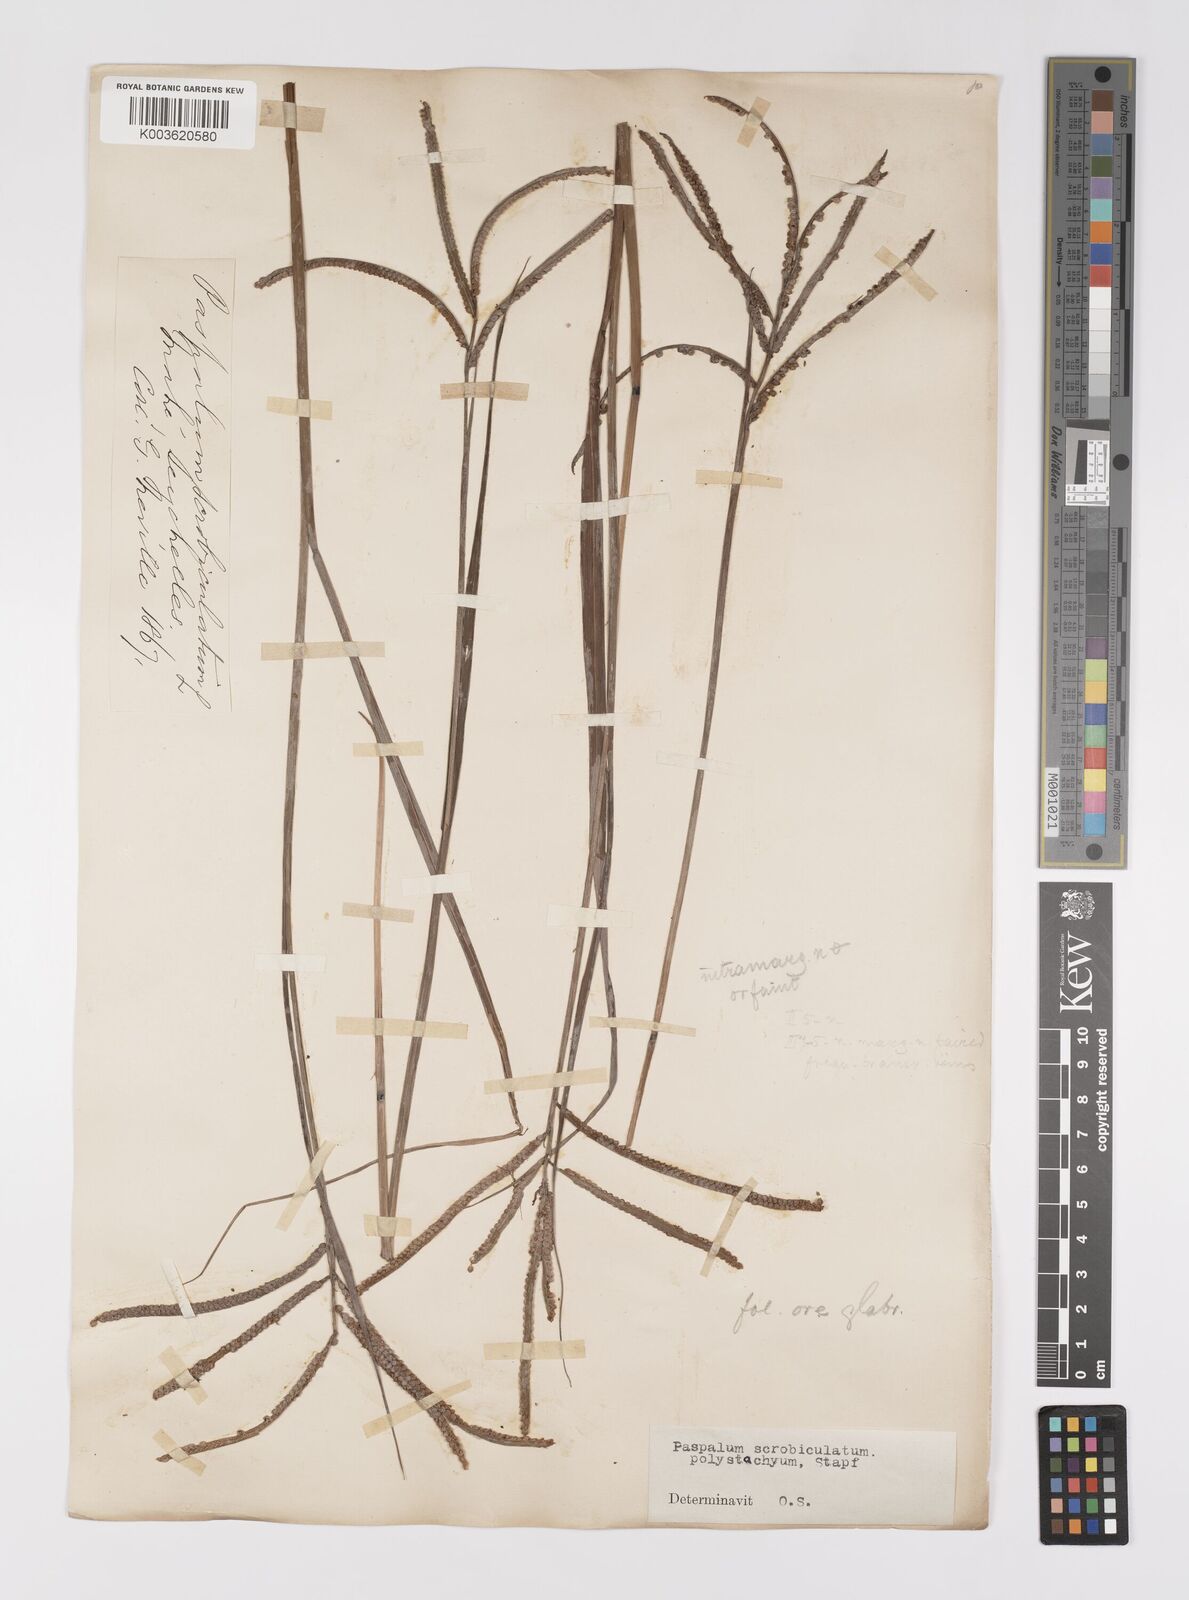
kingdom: Plantae
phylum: Tracheophyta
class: Liliopsida
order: Poales
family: Poaceae
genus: Paspalum
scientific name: Paspalum scrobiculatum
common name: Kodo millet
